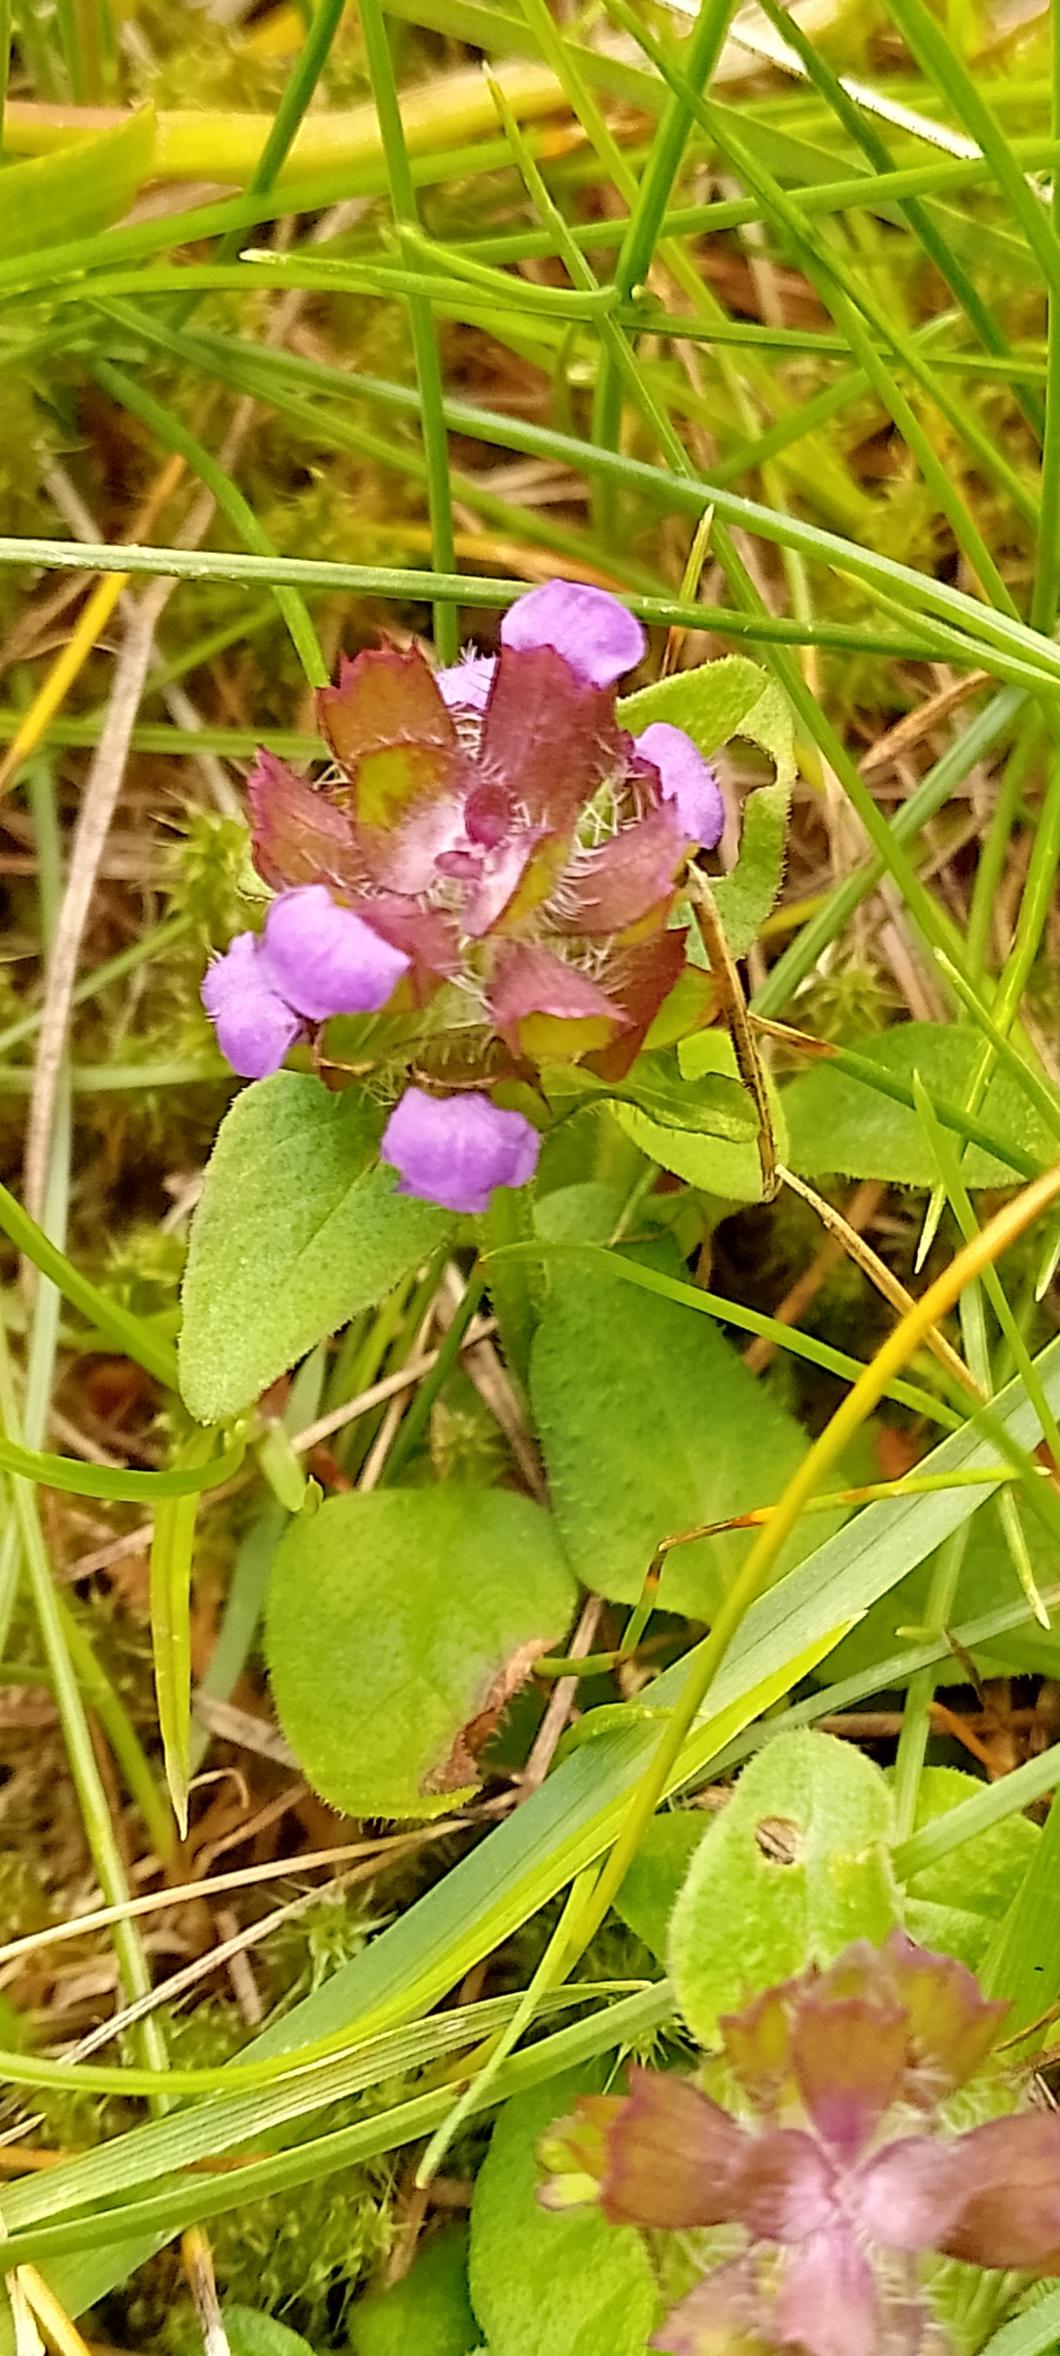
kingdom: Plantae
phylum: Tracheophyta
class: Magnoliopsida
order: Lamiales
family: Lamiaceae
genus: Prunella
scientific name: Prunella vulgaris
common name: Almindelig brunelle
